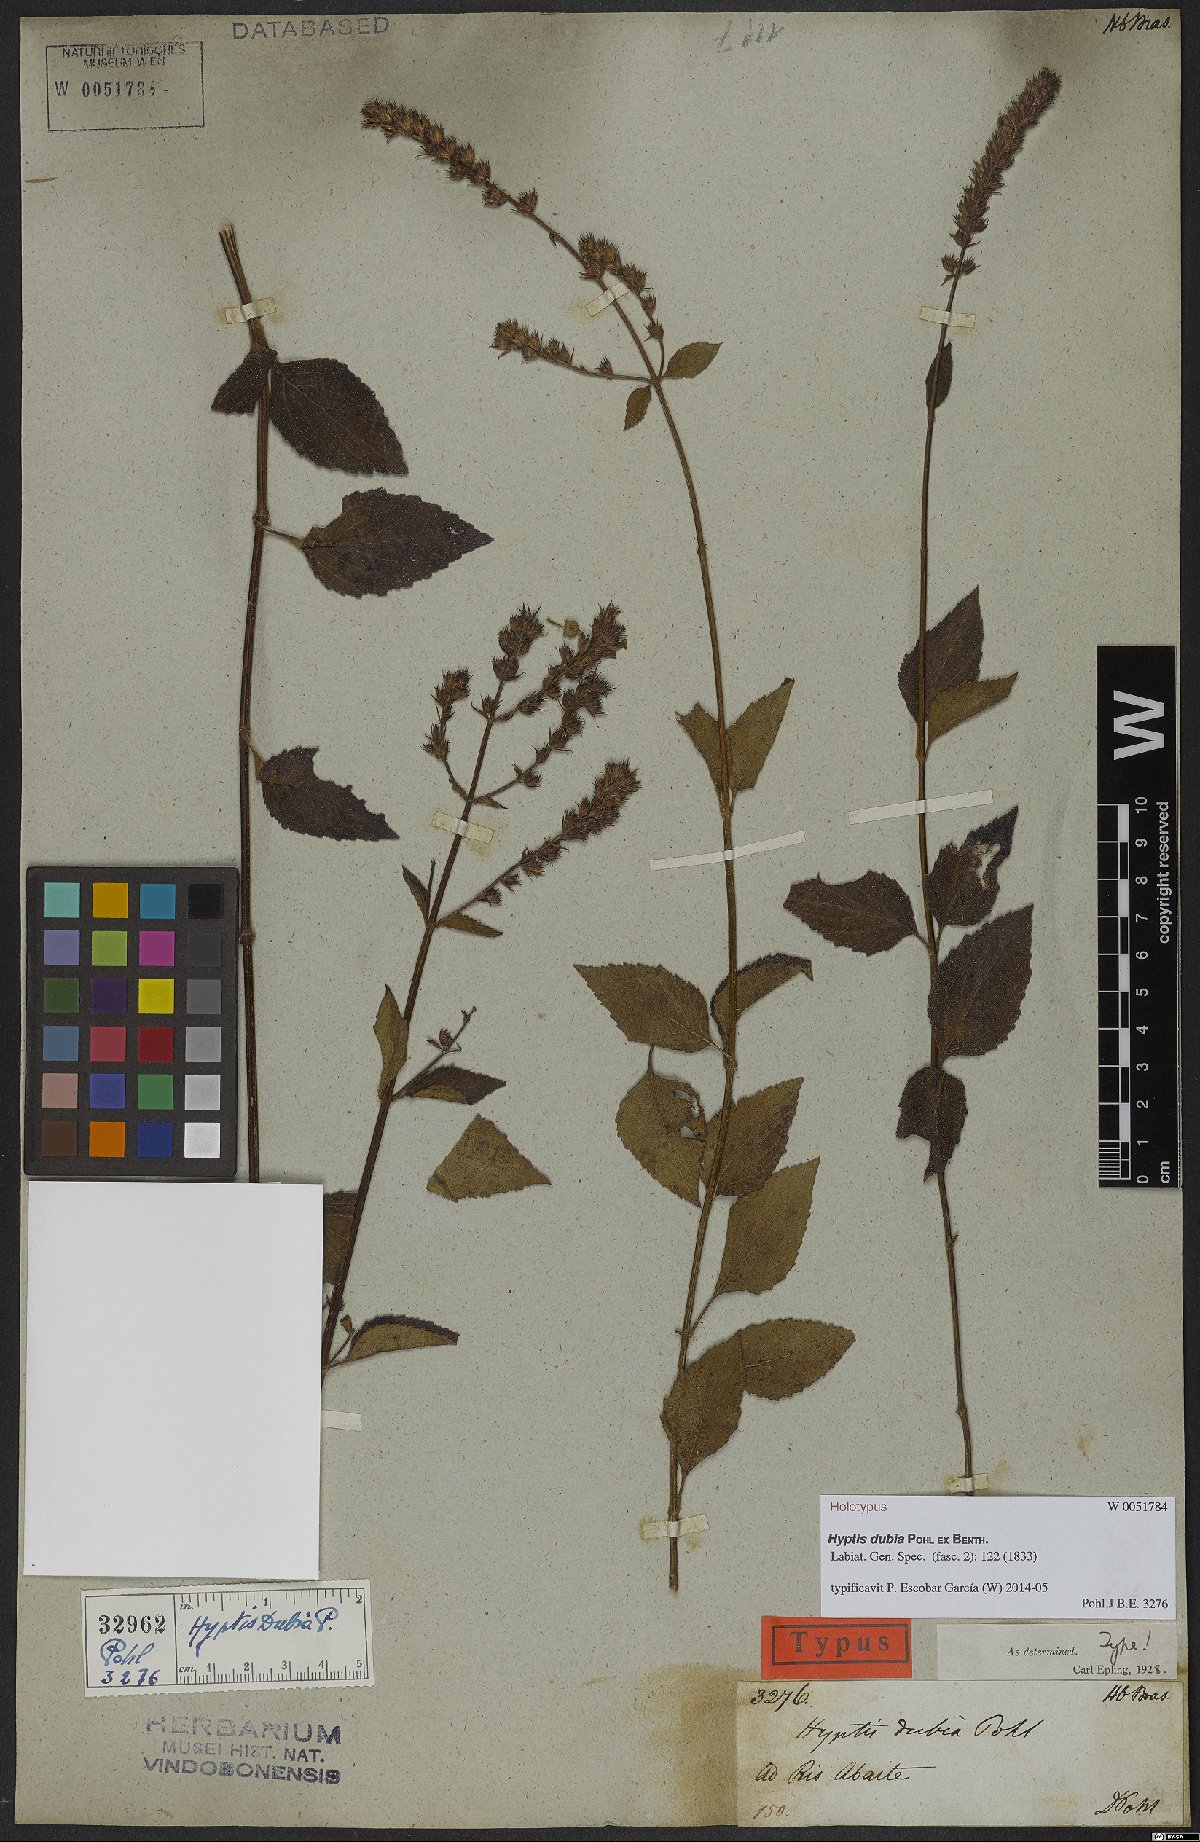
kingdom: Plantae
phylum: Tracheophyta
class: Magnoliopsida
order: Lamiales
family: Lamiaceae
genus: Cantinoa
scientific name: Cantinoa dubia
